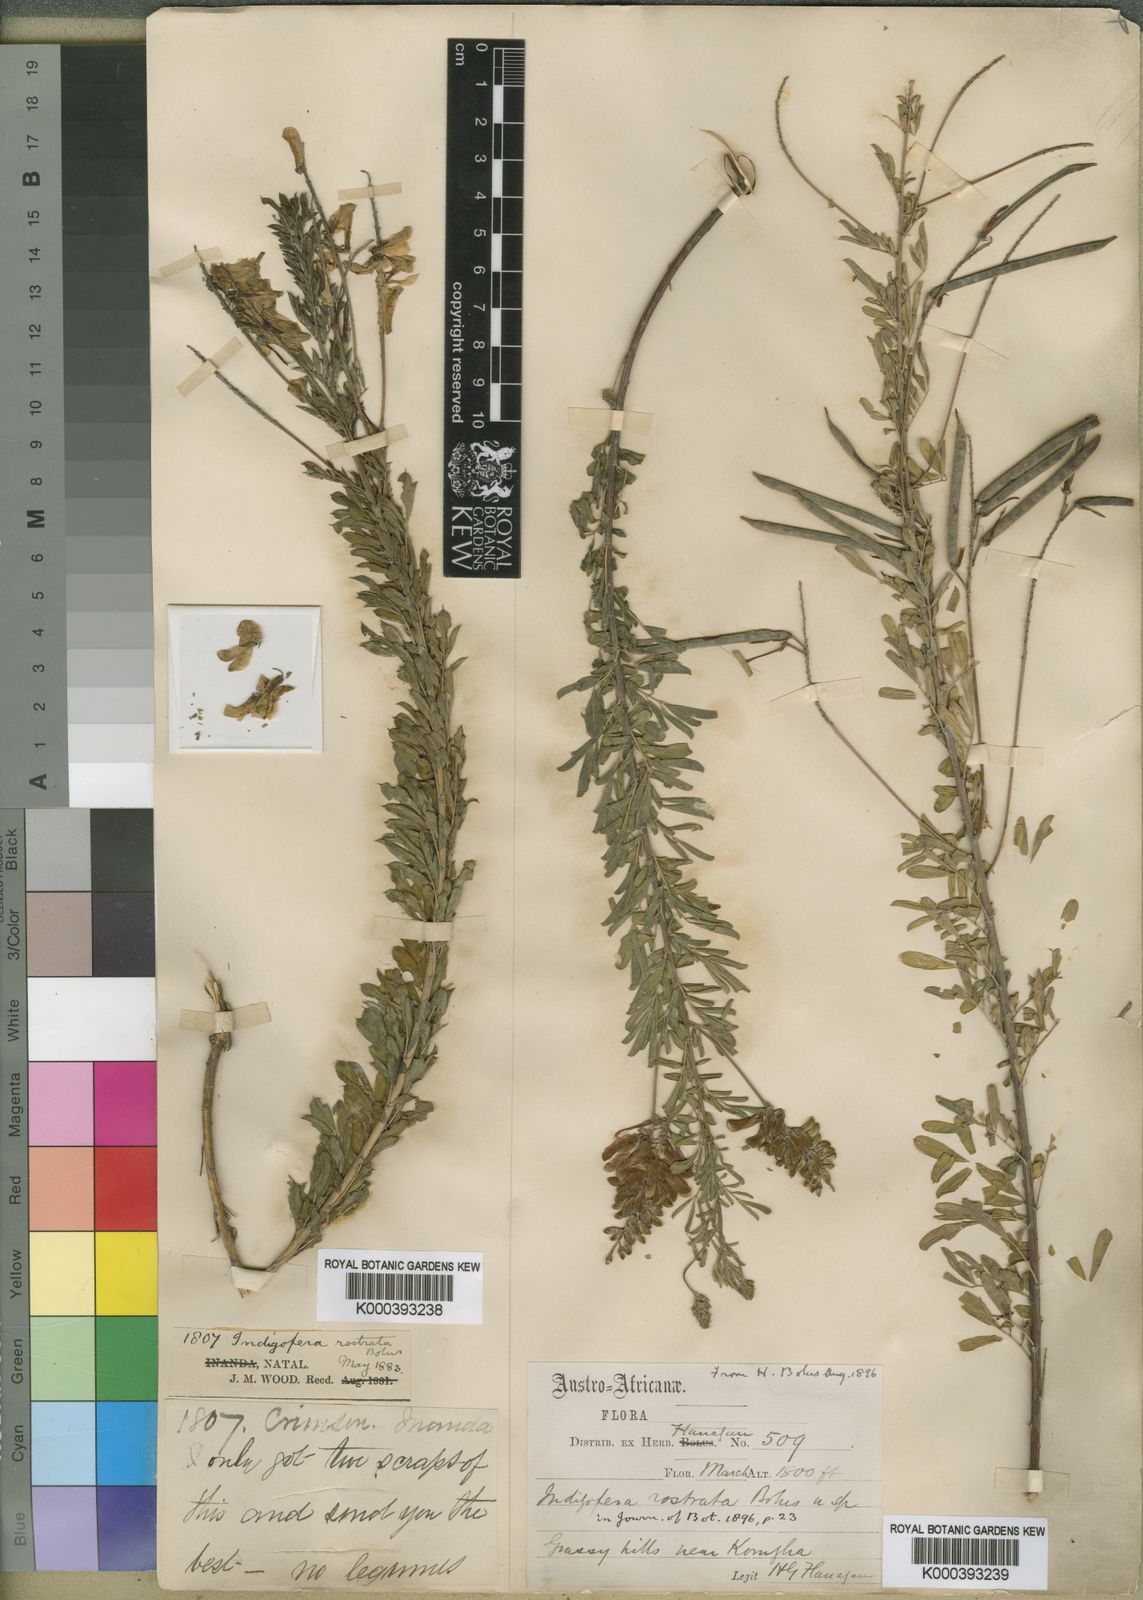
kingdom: Plantae
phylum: Tracheophyta
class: Magnoliopsida
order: Fabales
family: Fabaceae
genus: Indigofera
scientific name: Indigofera rostrata
